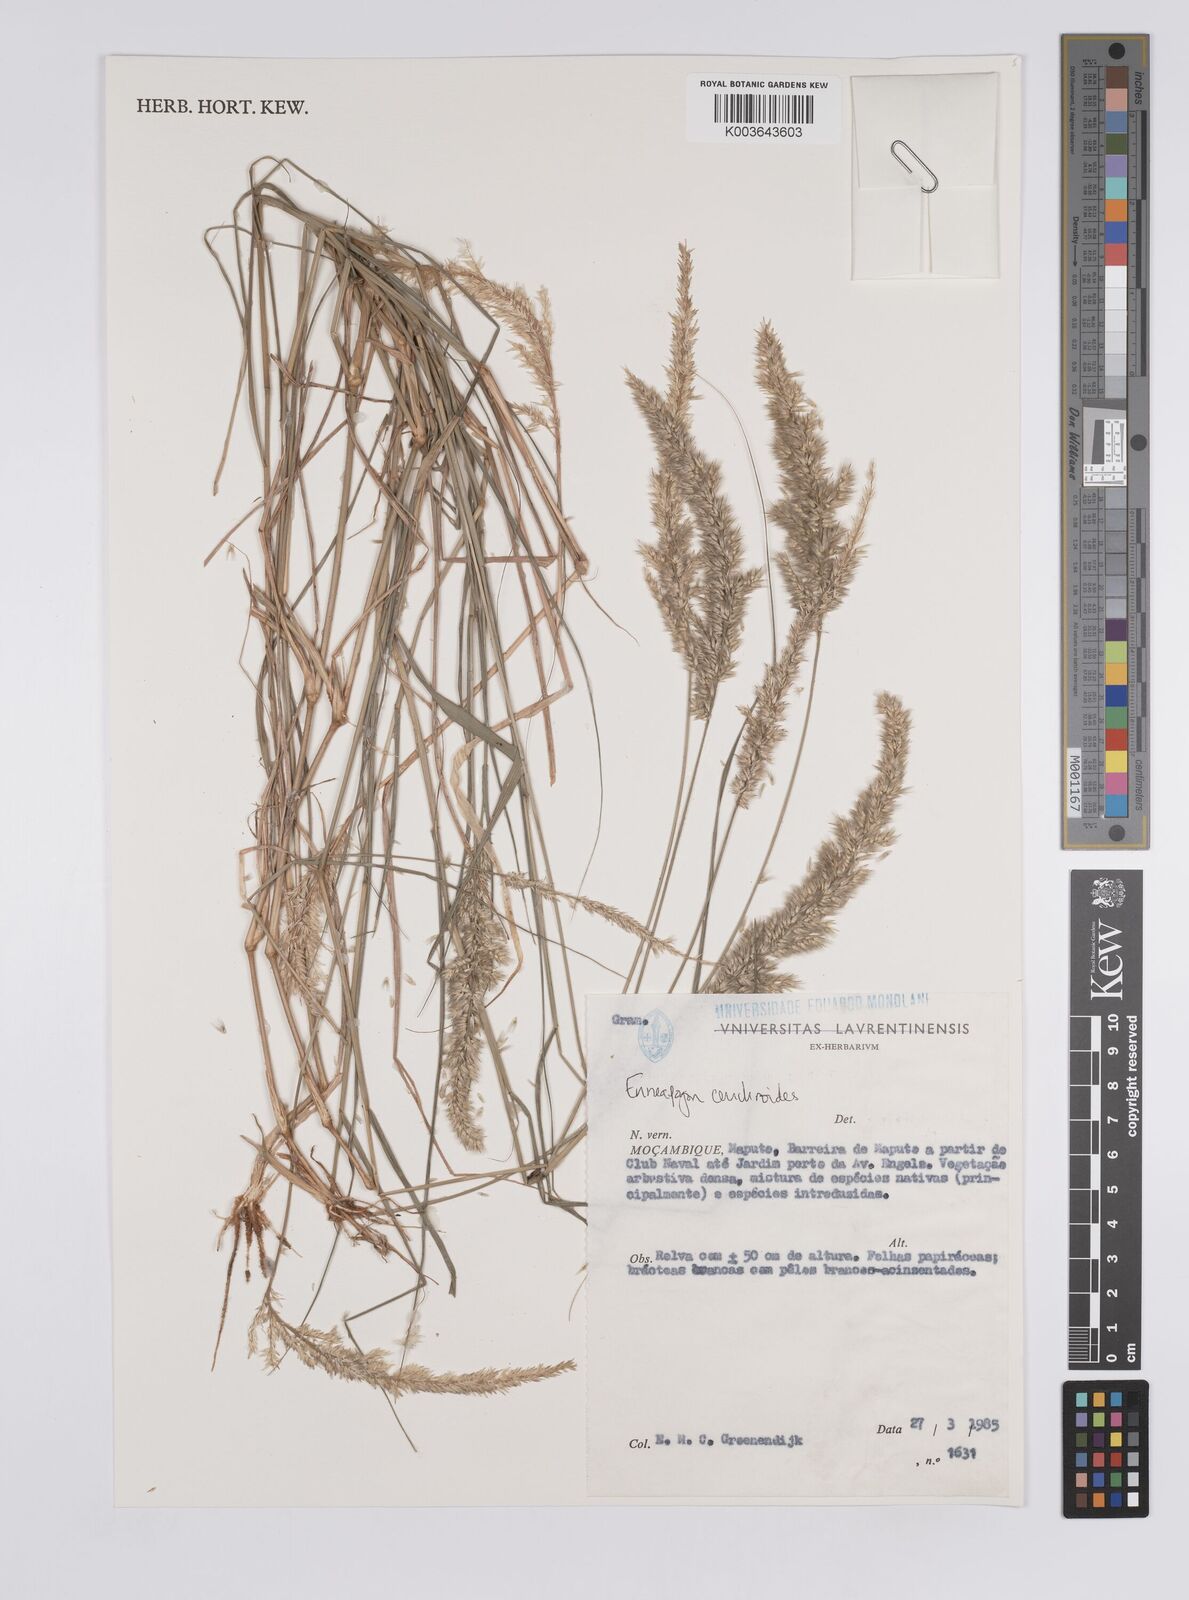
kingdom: Plantae
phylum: Tracheophyta
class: Liliopsida
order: Poales
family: Poaceae
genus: Enneapogon
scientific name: Enneapogon cenchroides
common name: Soft feather pappusgrass
